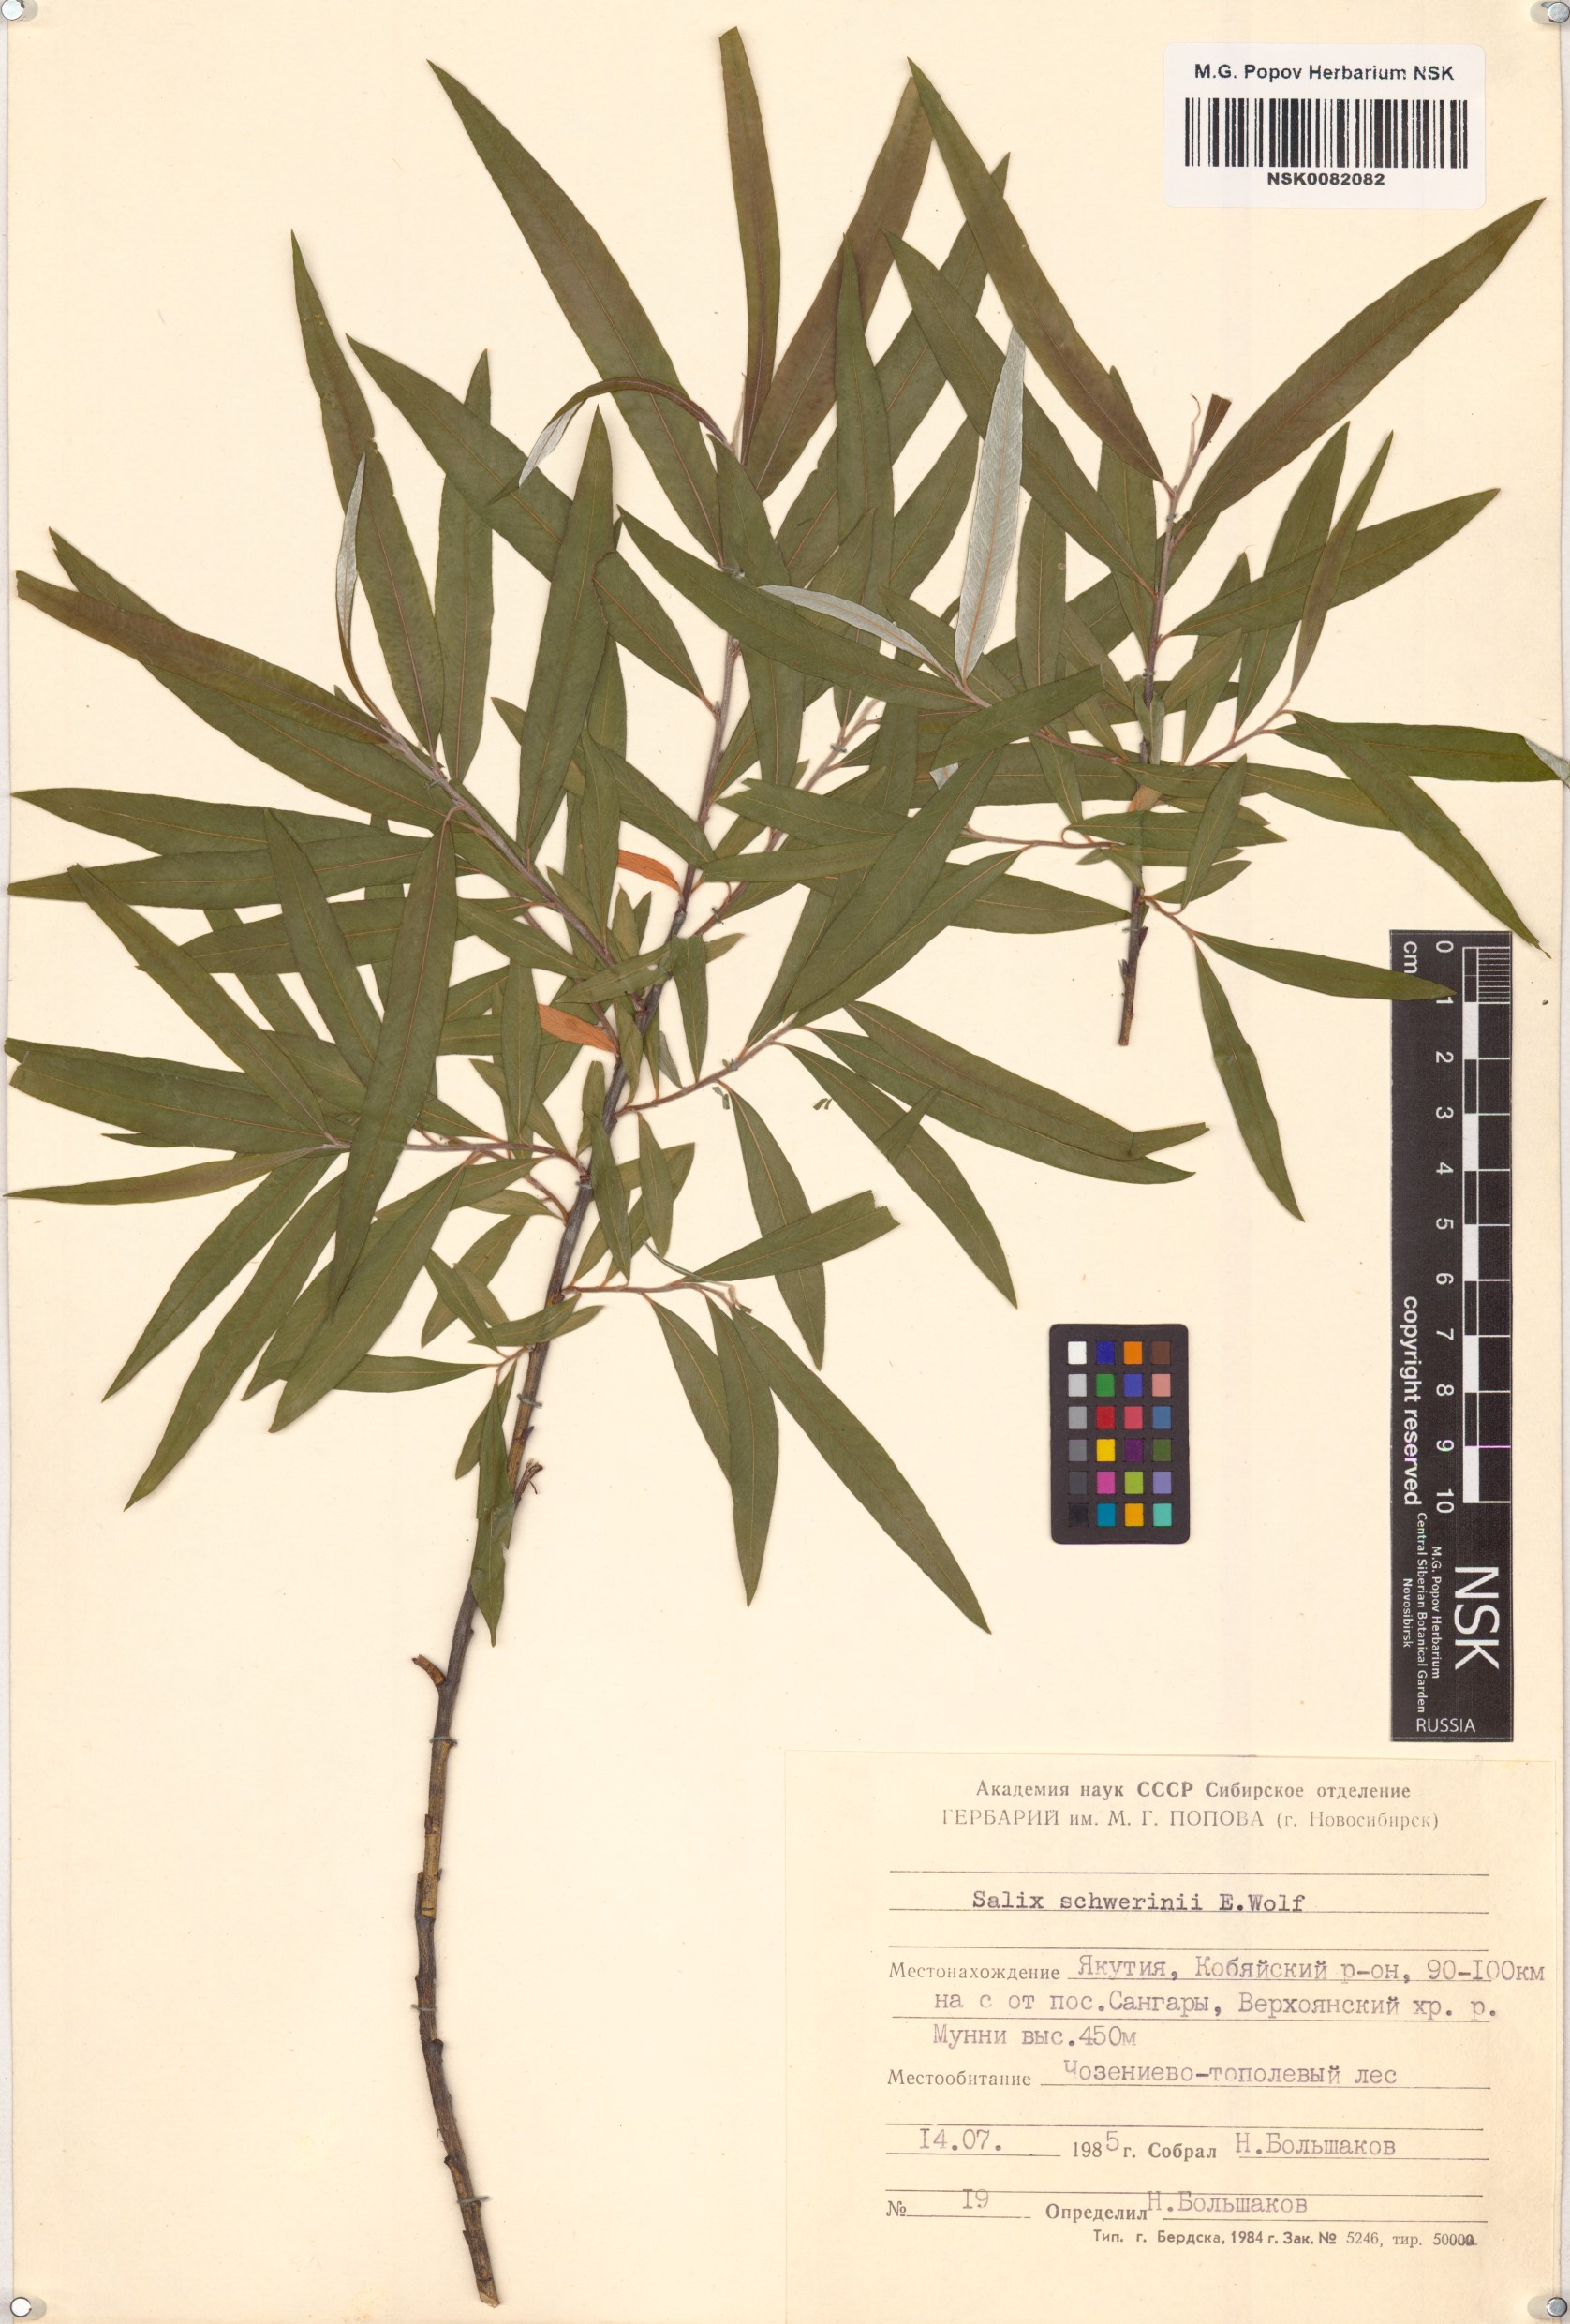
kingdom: Plantae
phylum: Tracheophyta
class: Magnoliopsida
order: Malpighiales
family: Salicaceae
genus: Salix
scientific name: Salix schwerinii
